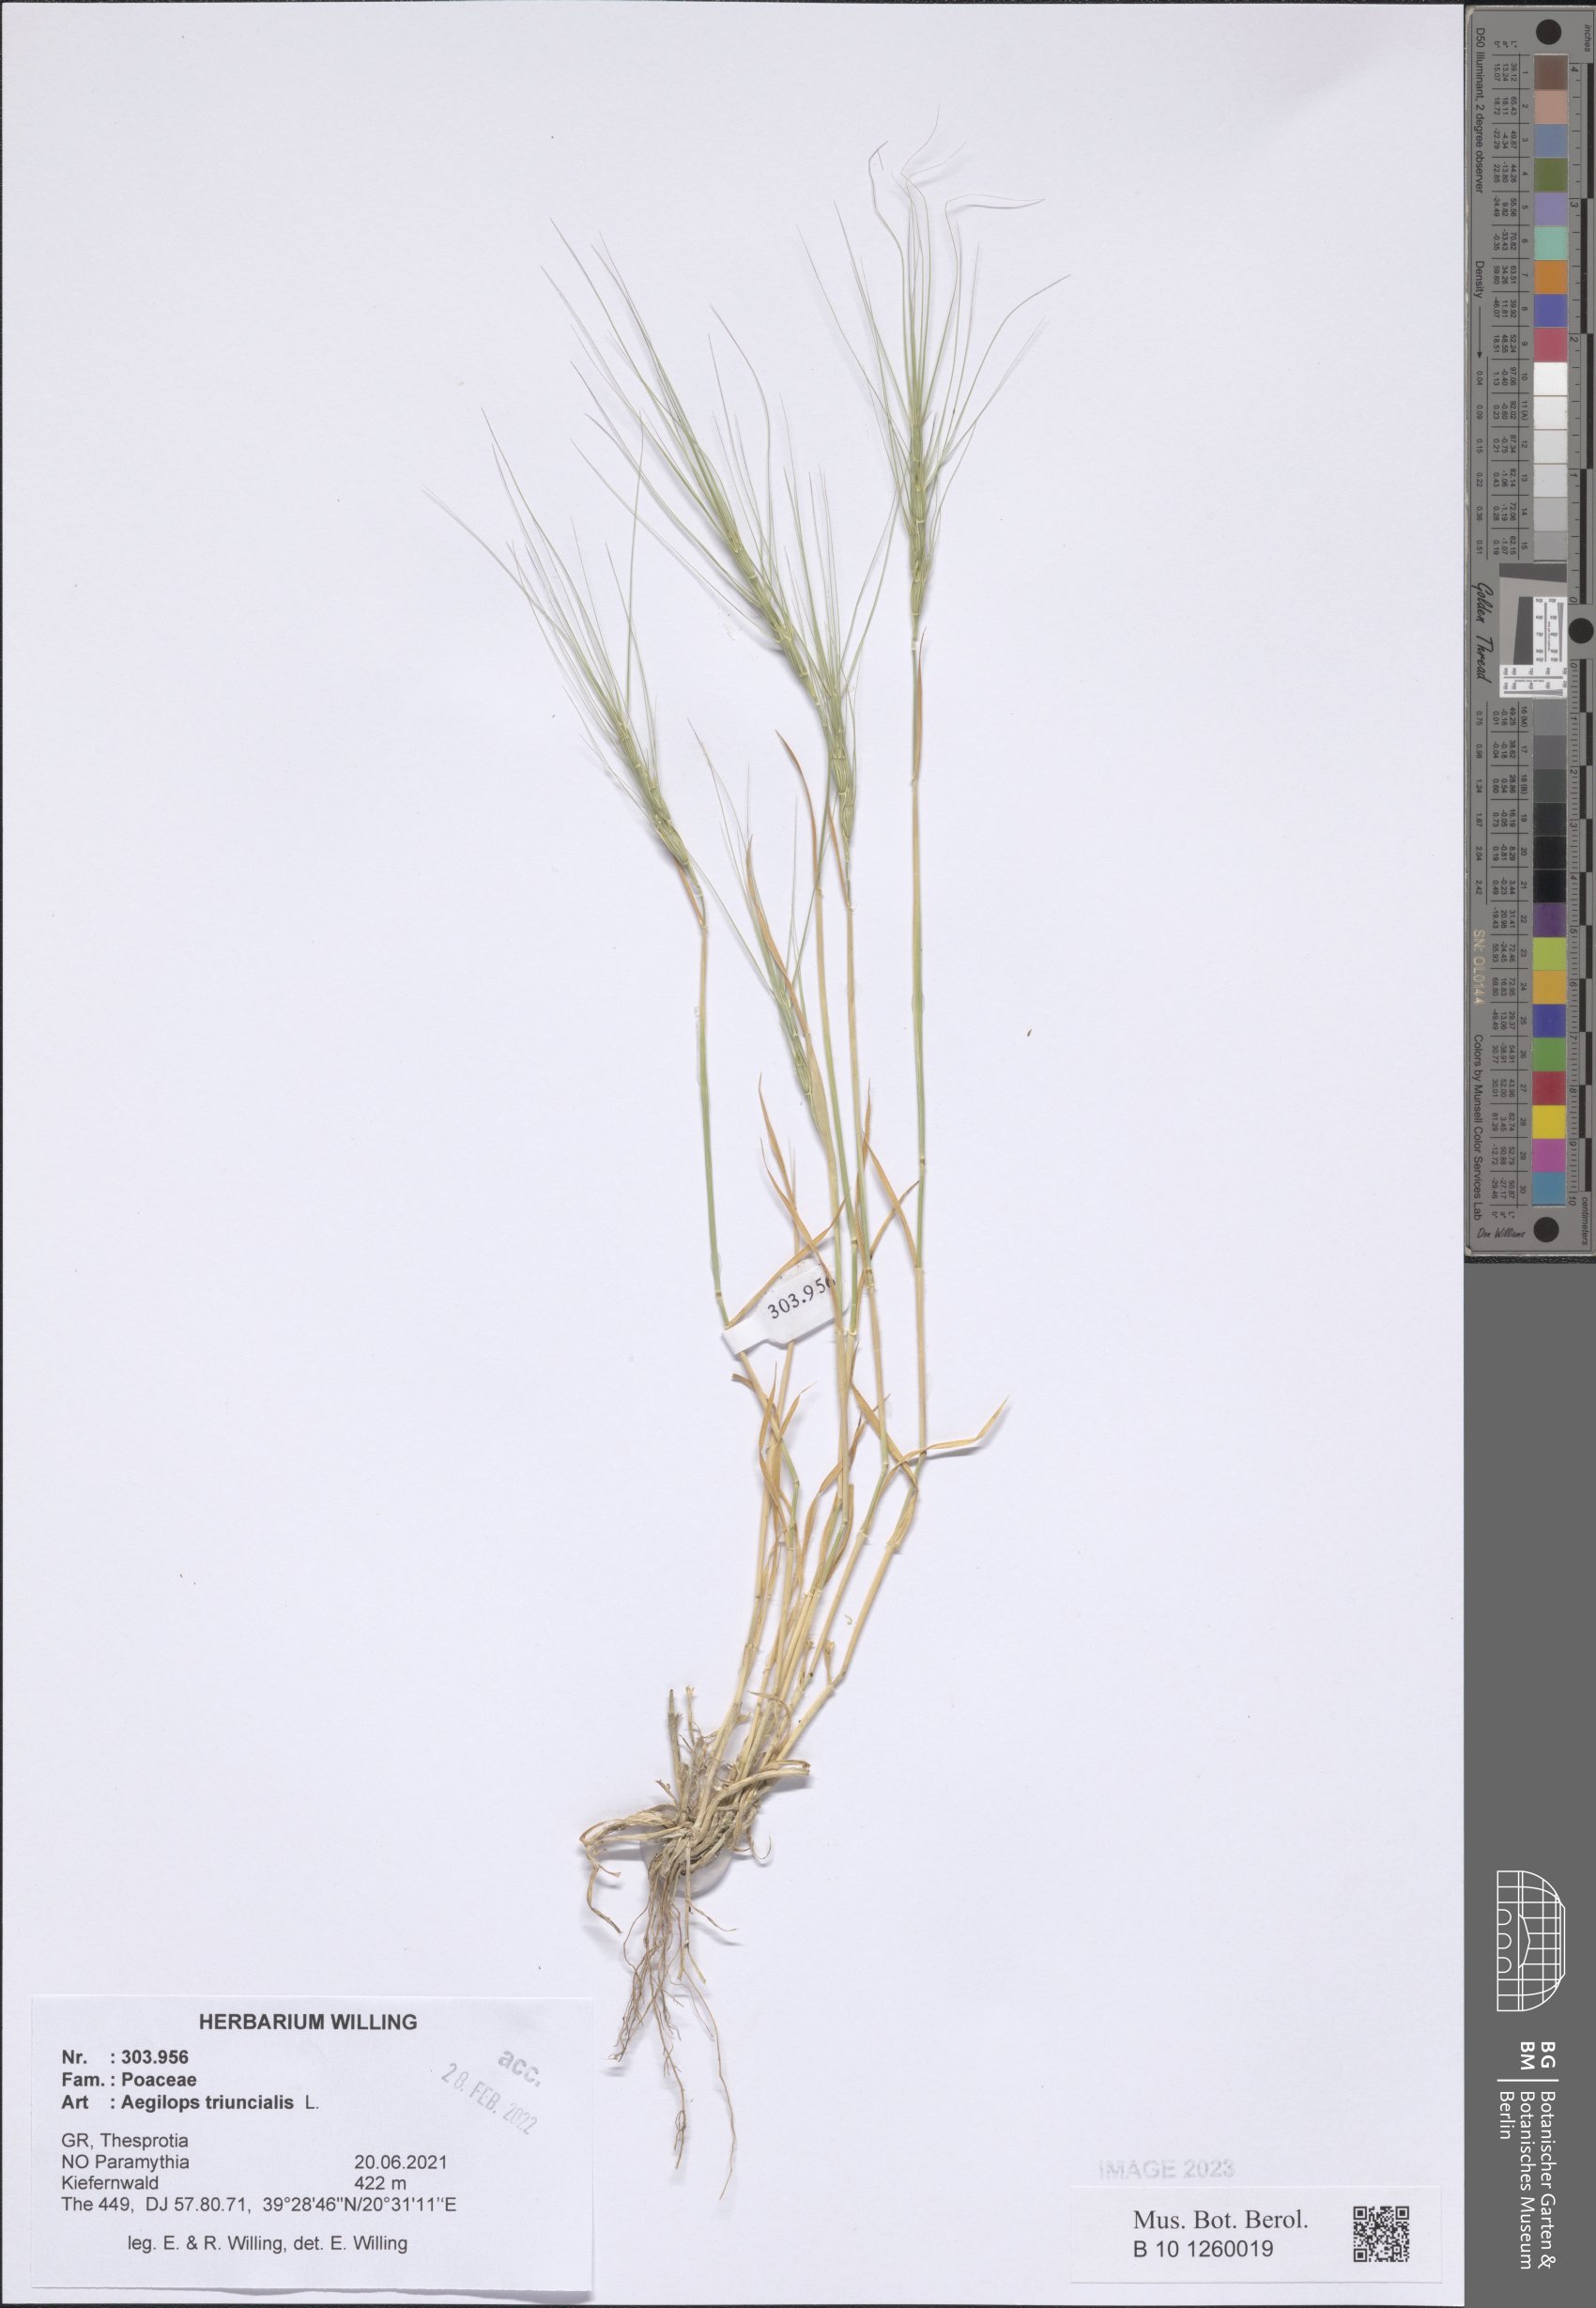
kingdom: Plantae
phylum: Tracheophyta
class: Liliopsida
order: Poales
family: Poaceae
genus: Aegilops
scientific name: Aegilops triuncialis
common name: Barb goat grass
